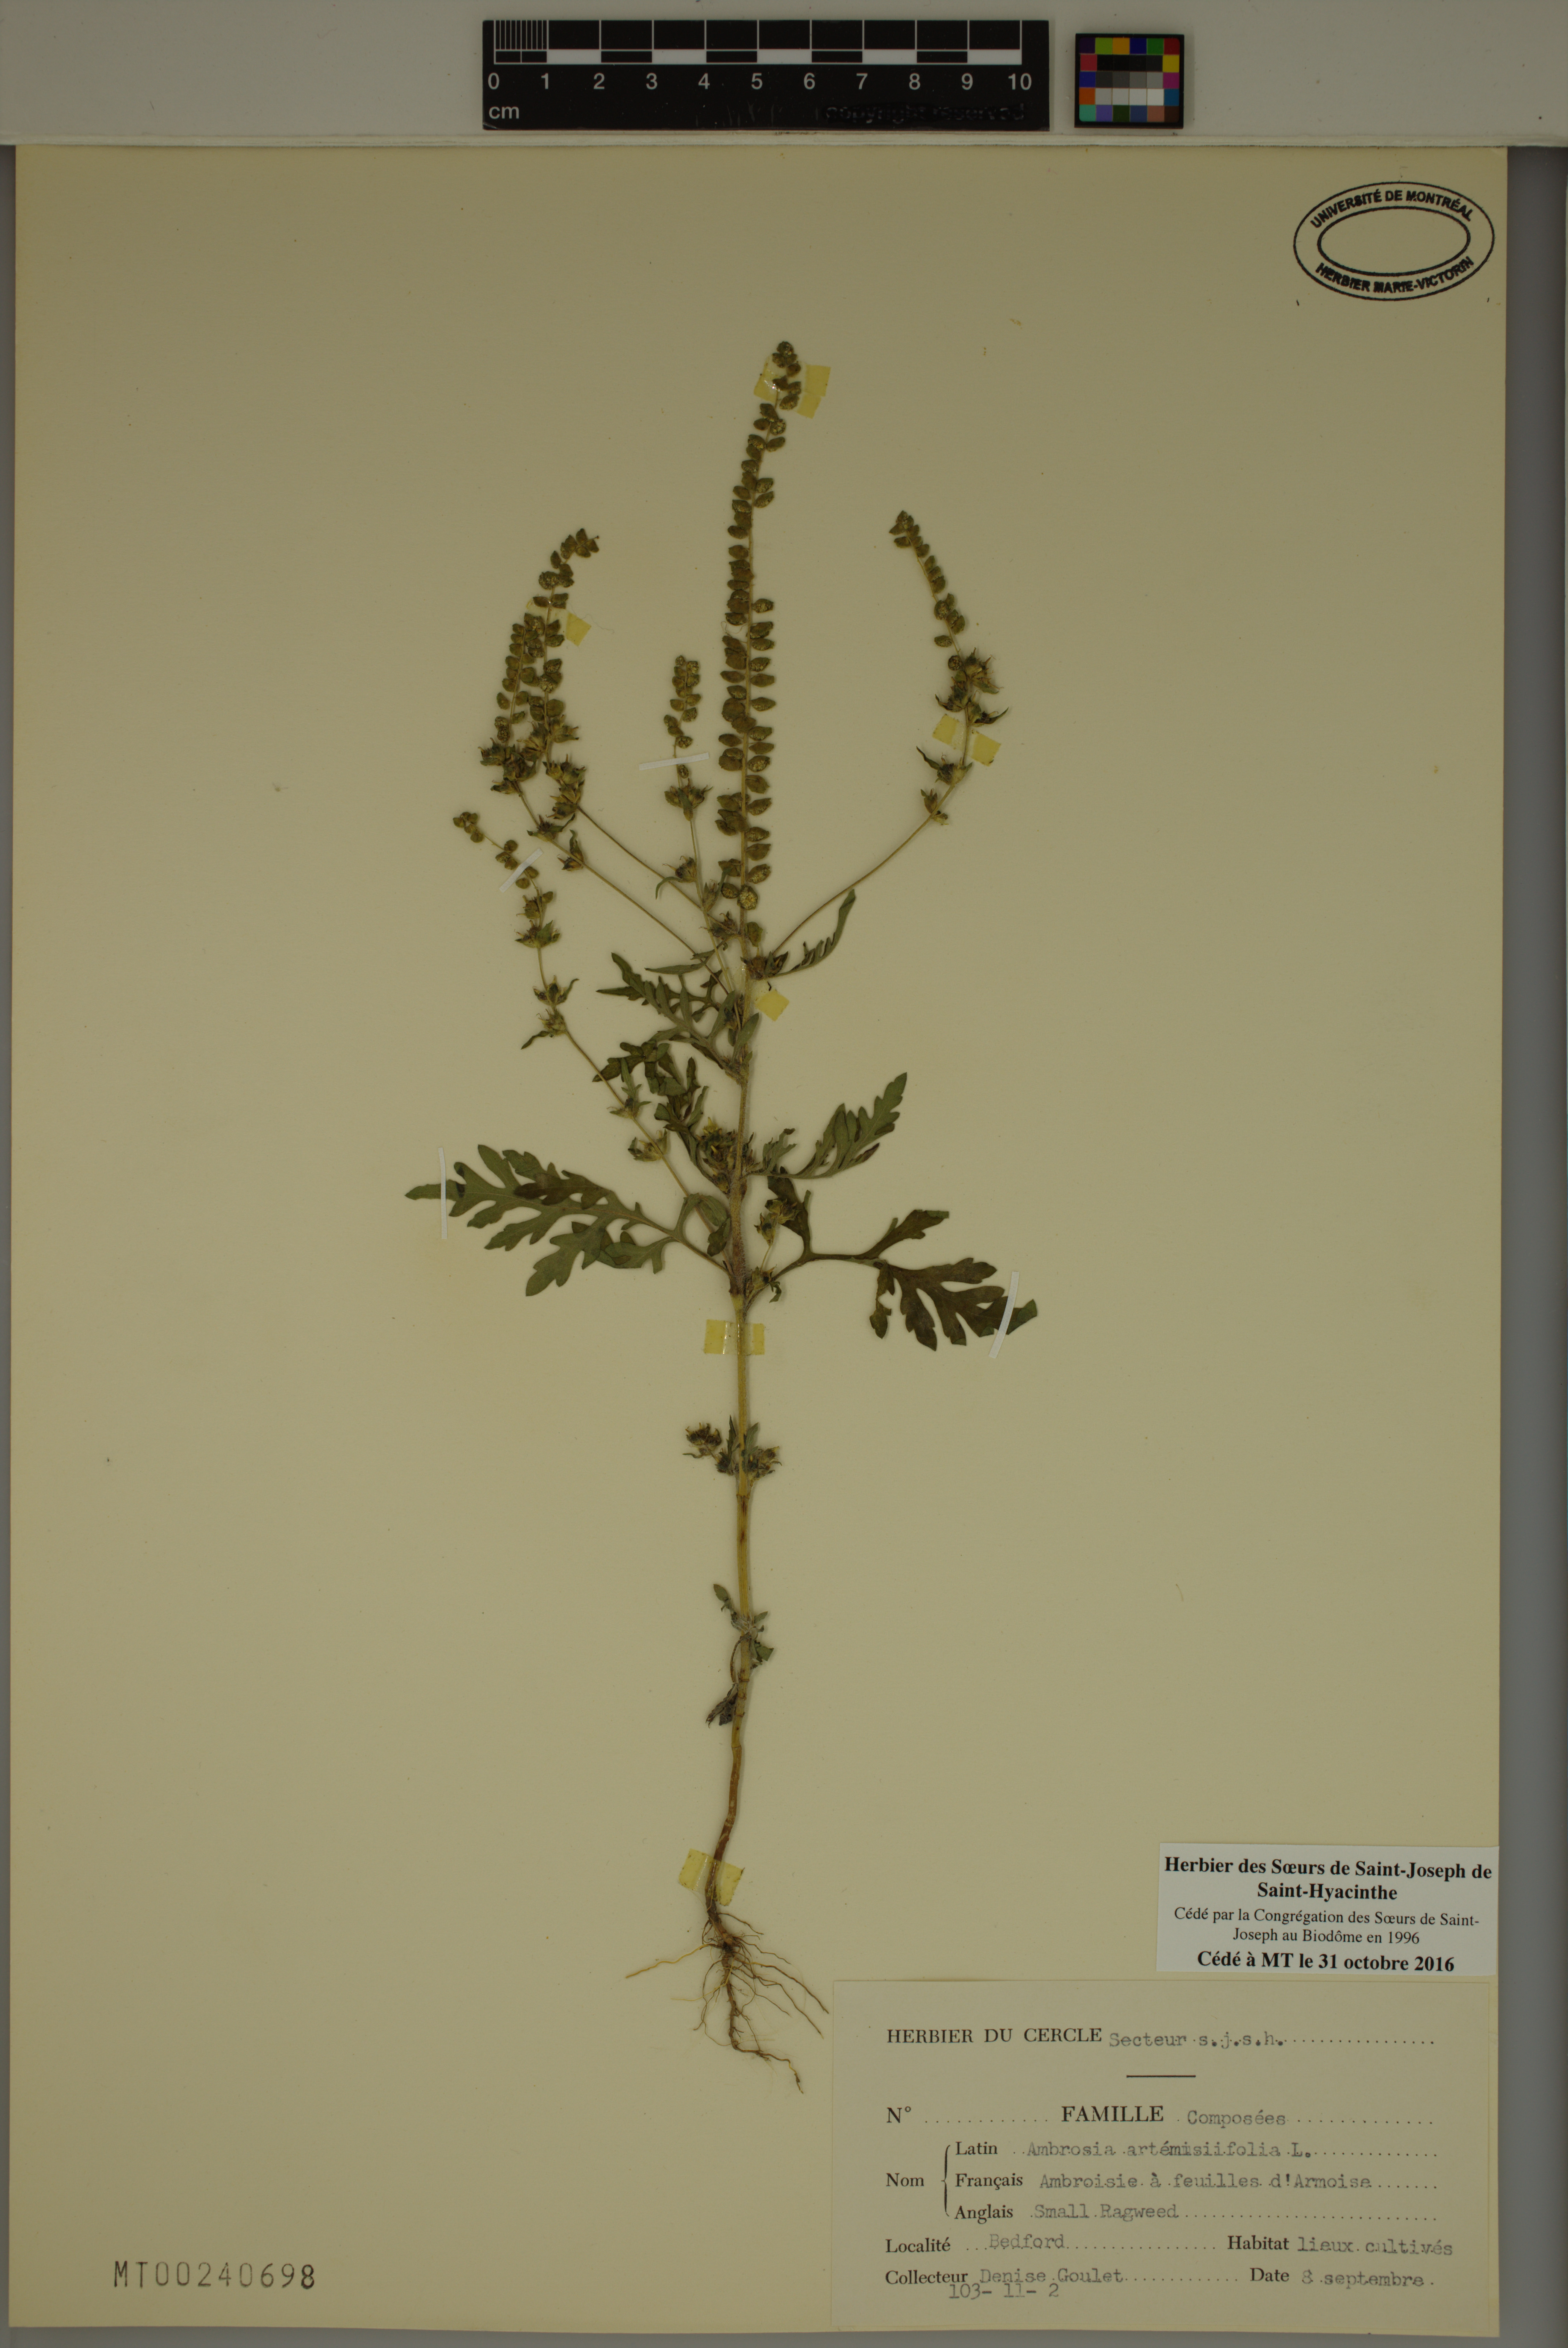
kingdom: Plantae
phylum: Tracheophyta
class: Magnoliopsida
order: Asterales
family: Asteraceae
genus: Ambrosia
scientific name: Ambrosia artemisiifolia
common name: Annual ragweed
